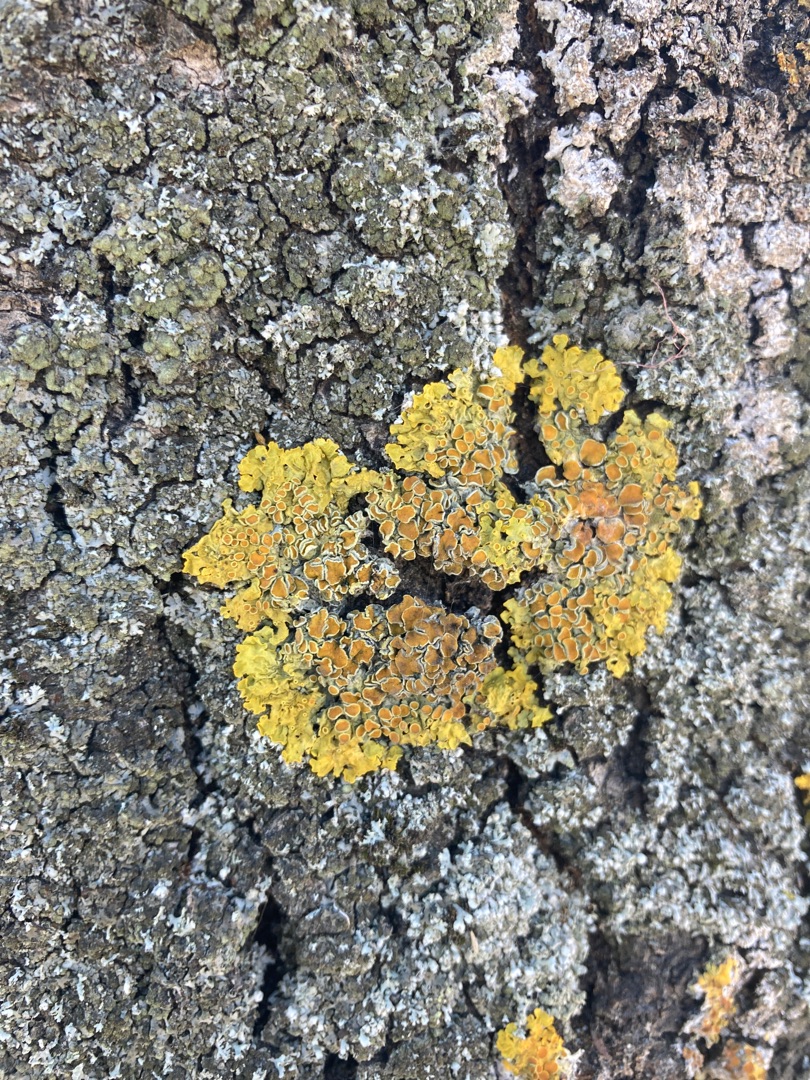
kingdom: Fungi
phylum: Ascomycota
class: Lecanoromycetes
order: Teloschistales
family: Teloschistaceae
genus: Xanthoria
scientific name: Xanthoria parietina
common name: Almindelig væggelav
